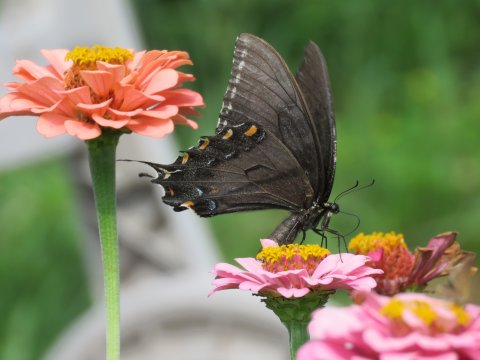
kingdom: Animalia
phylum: Arthropoda
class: Insecta
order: Lepidoptera
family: Papilionidae
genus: Pterourus
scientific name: Pterourus glaucus
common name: Eastern Tiger Swallowtail
